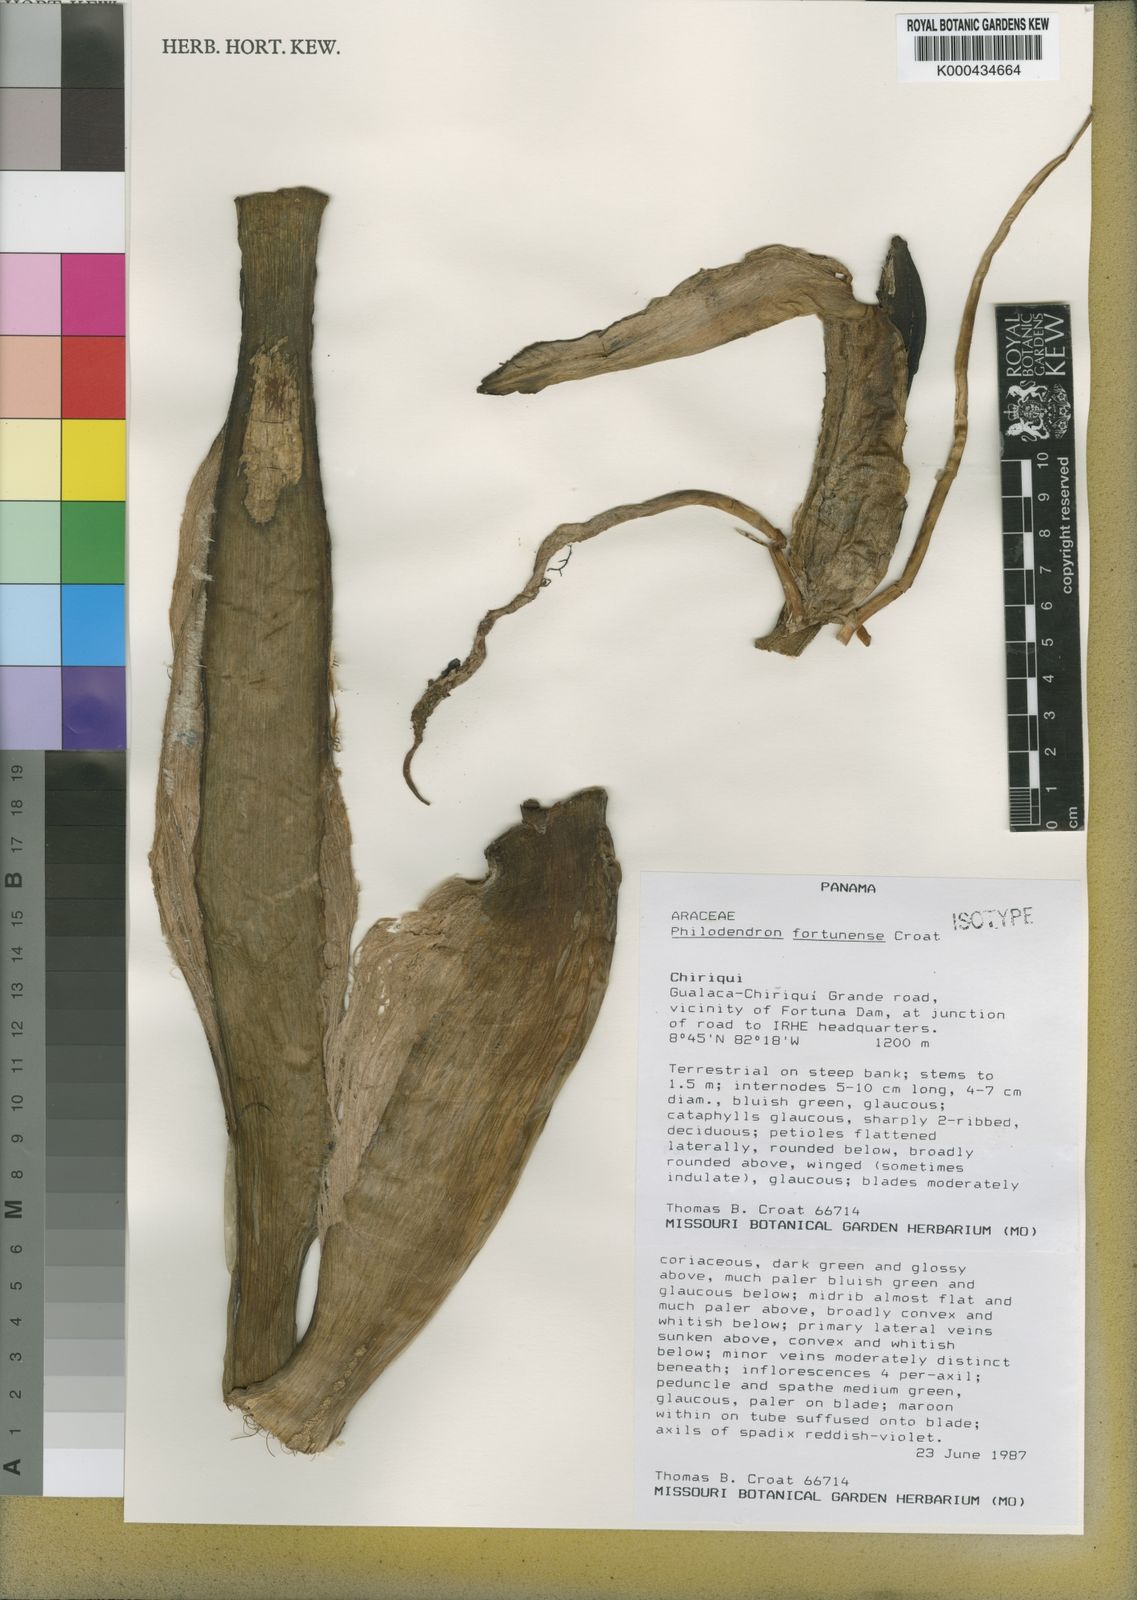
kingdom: Plantae
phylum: Tracheophyta
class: Liliopsida
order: Alismatales
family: Araceae
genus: Philodendron
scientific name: Philodendron fortunense
